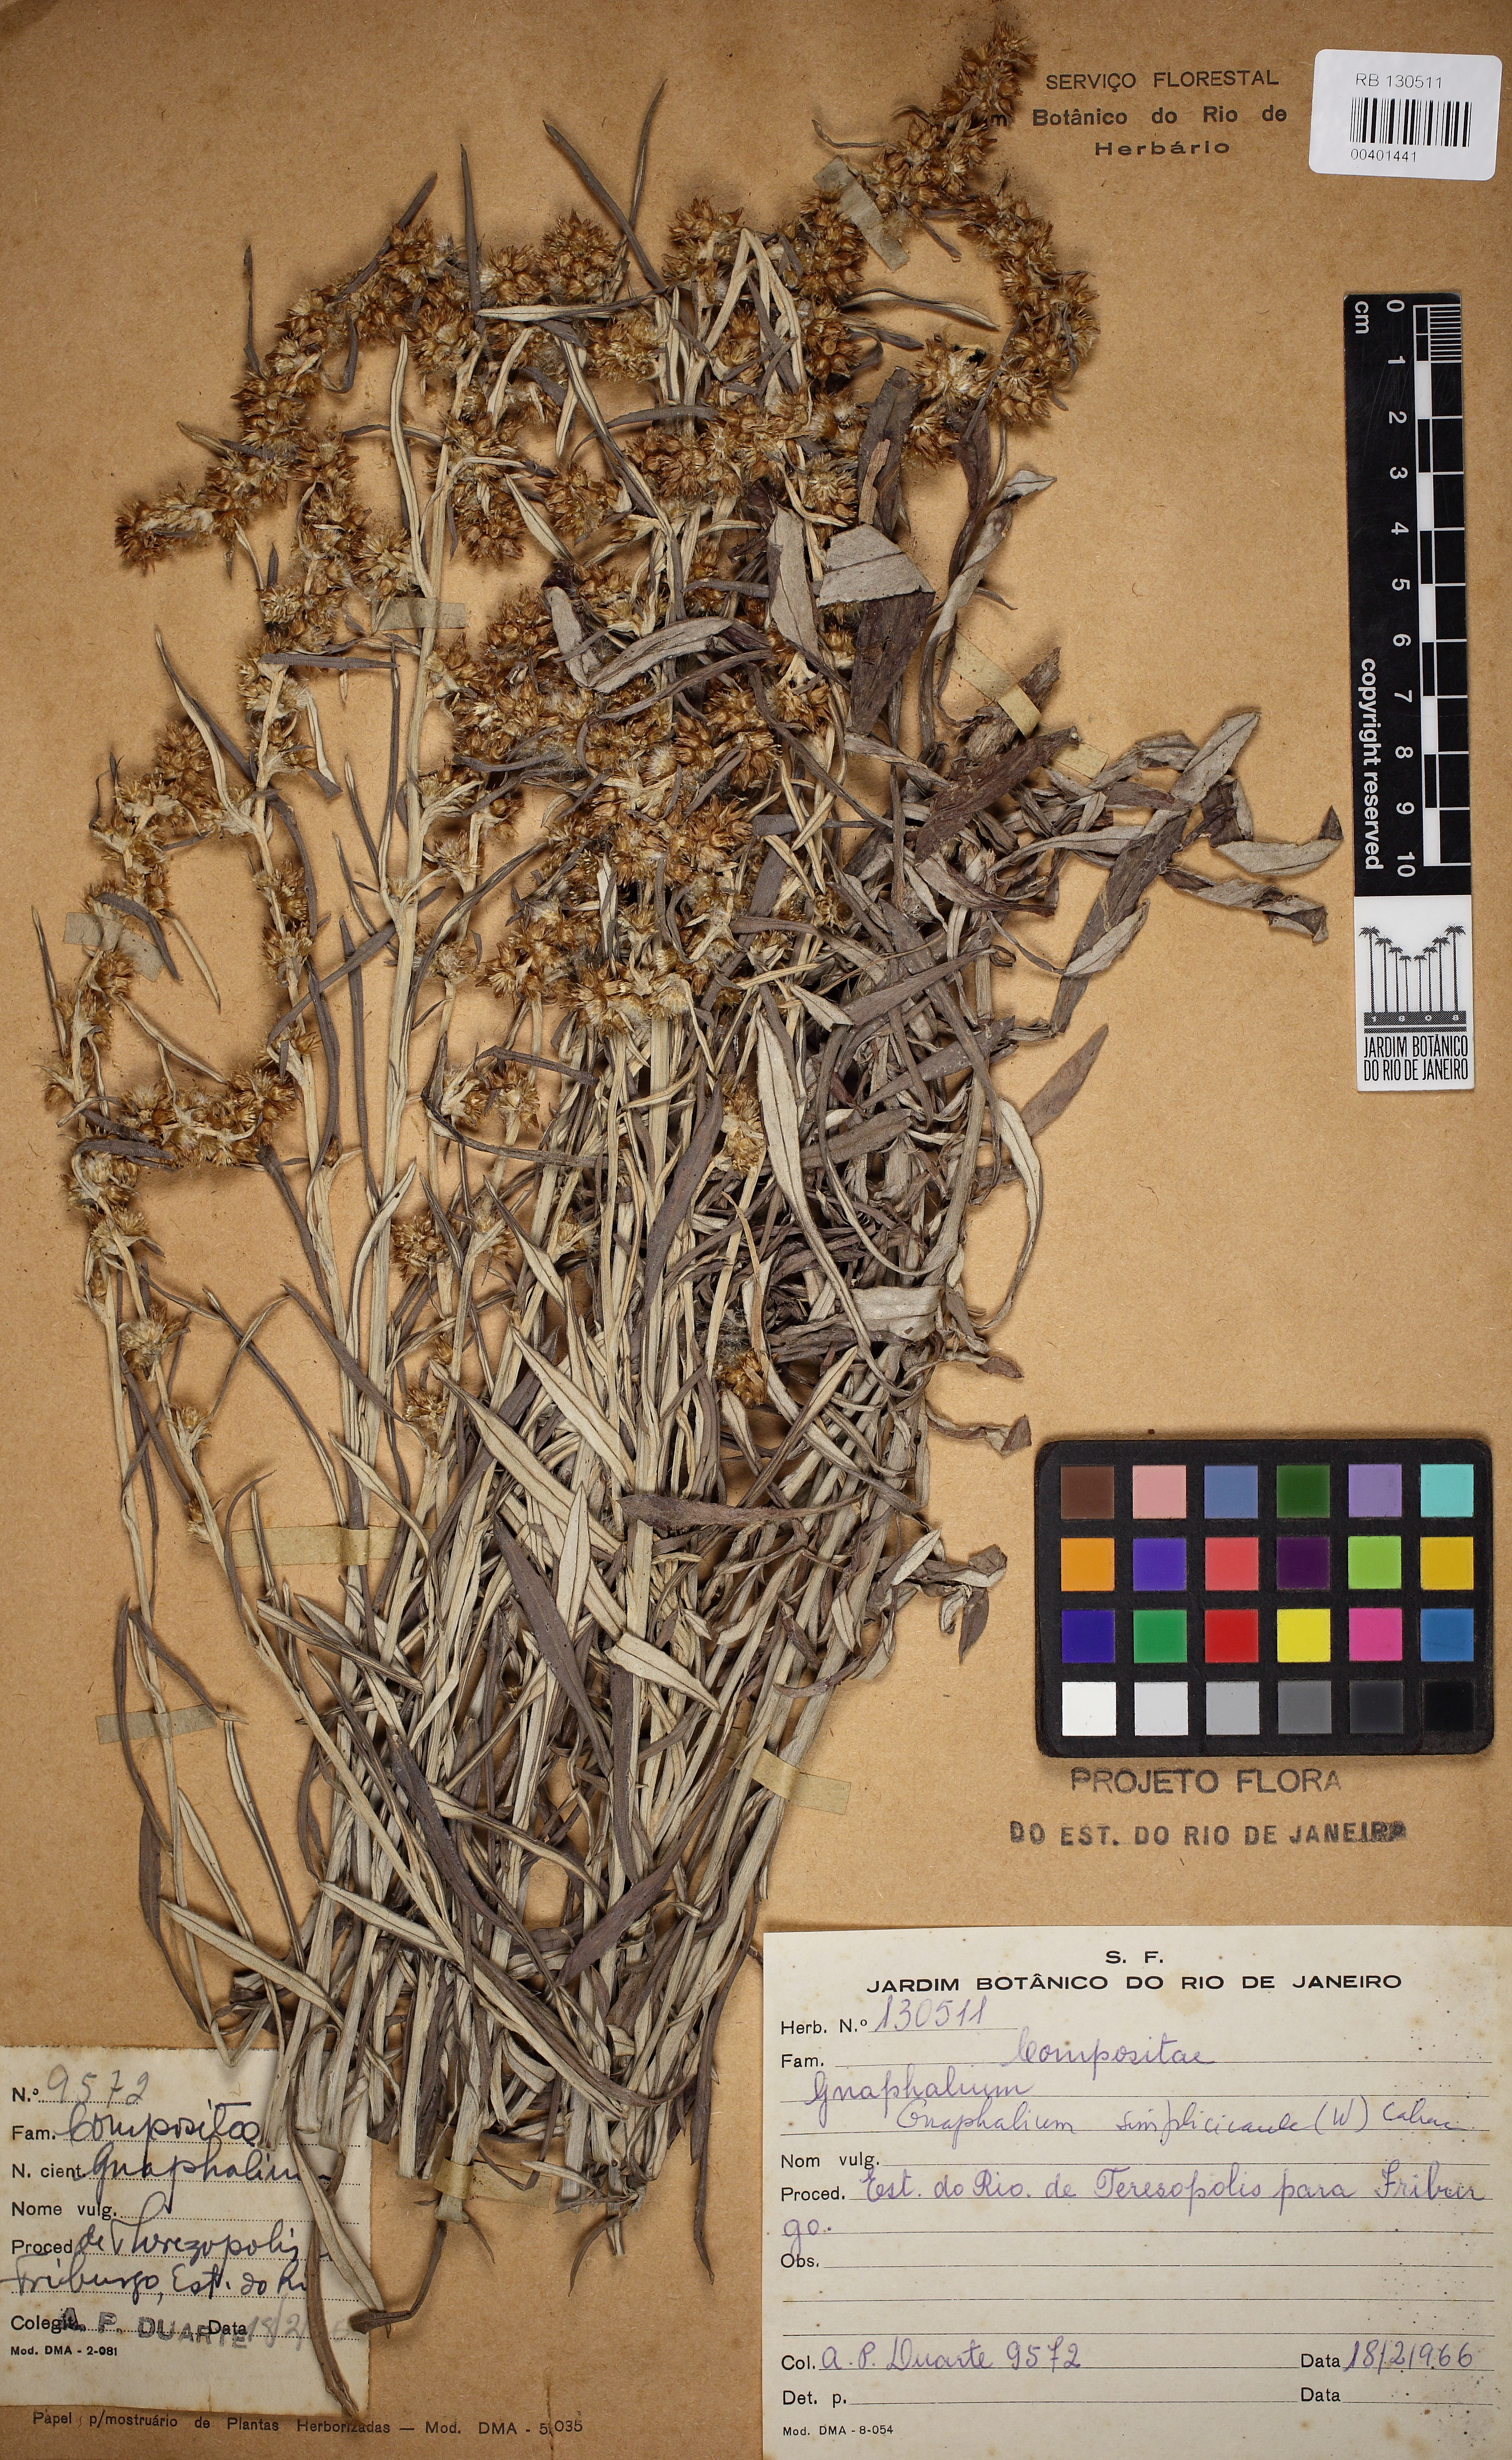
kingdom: Plantae
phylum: Tracheophyta
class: Magnoliopsida
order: Asterales
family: Asteraceae
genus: Pseudognaphalium
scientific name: Pseudognaphalium
